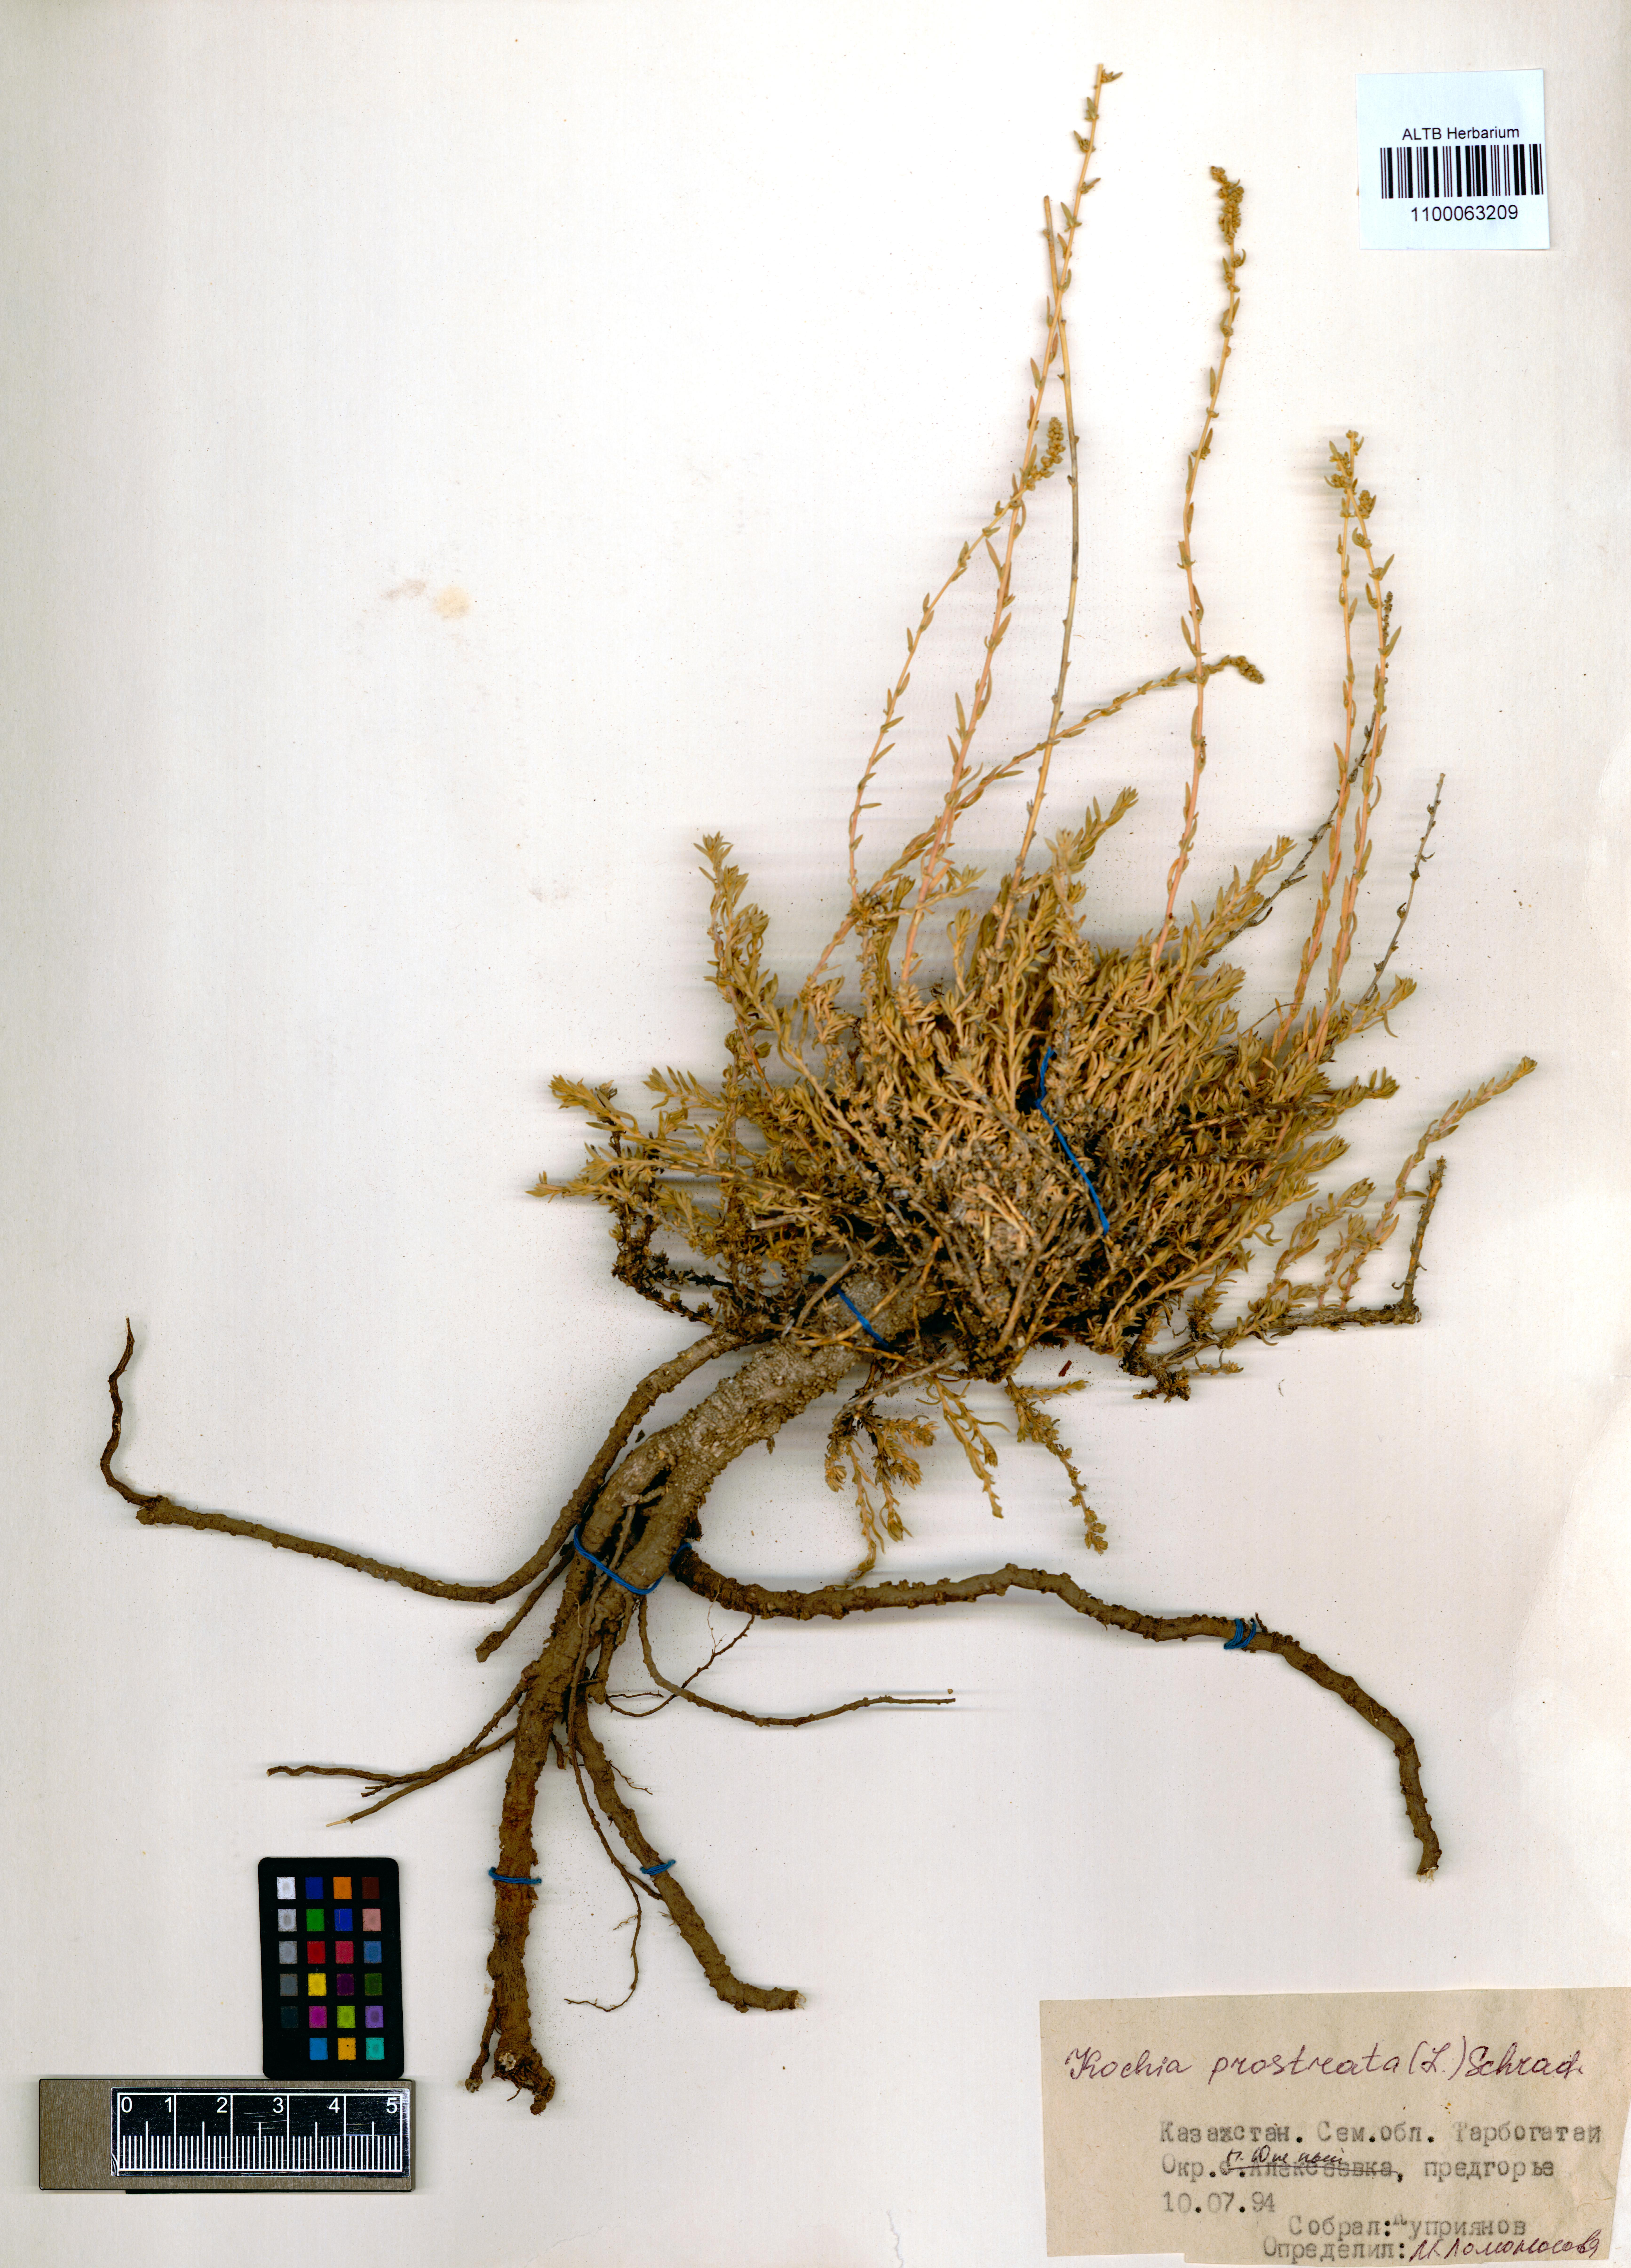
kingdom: Plantae
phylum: Tracheophyta
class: Magnoliopsida
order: Caryophyllales
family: Amaranthaceae
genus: Bassia
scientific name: Bassia prostrata
